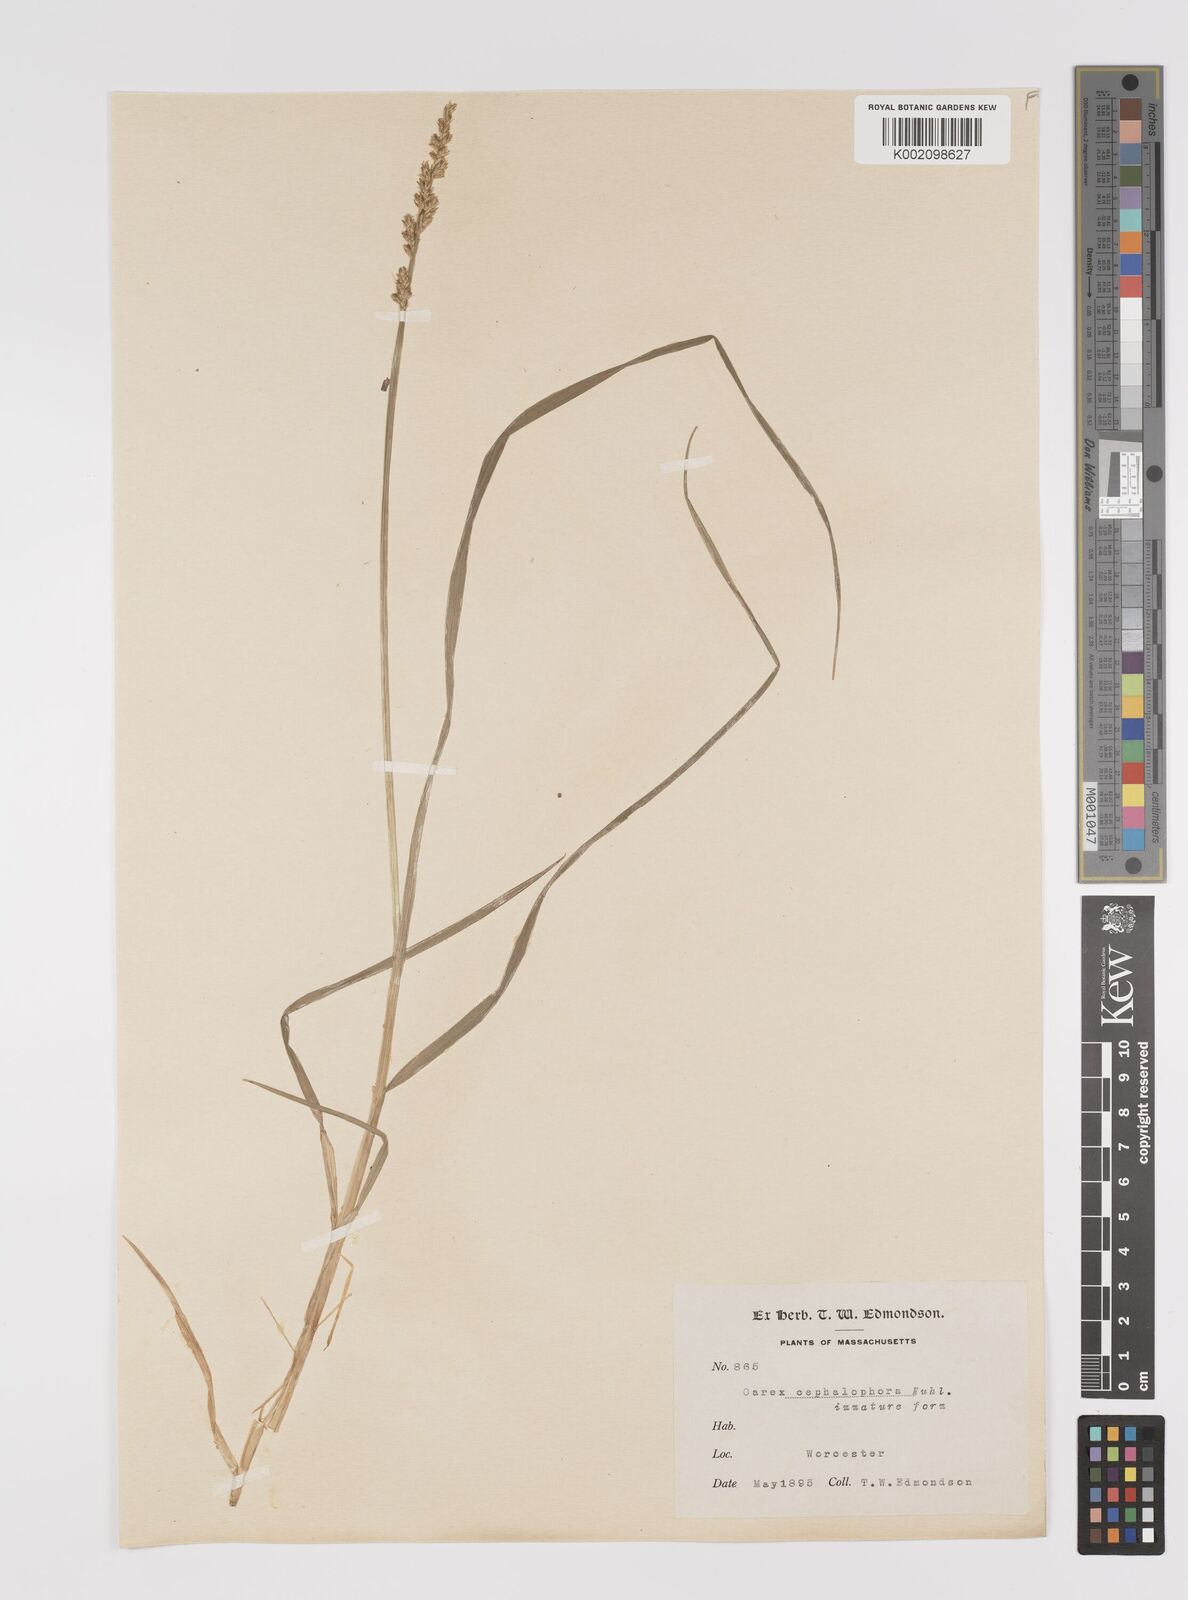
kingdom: Plantae
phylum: Tracheophyta
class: Liliopsida
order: Poales
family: Cyperaceae
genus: Carex
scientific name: Carex cephalophora
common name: Oval-headed sedge
